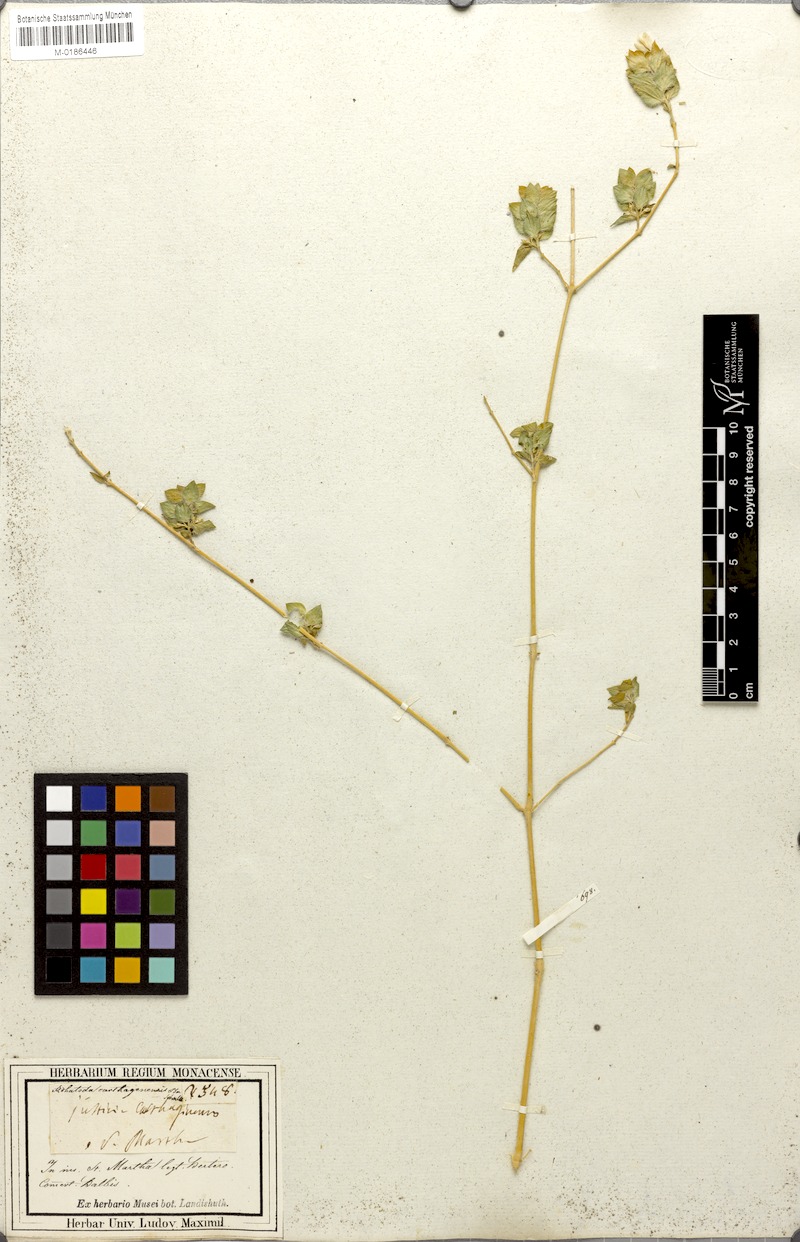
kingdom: Plantae
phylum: Tracheophyta
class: Magnoliopsida
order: Lamiales
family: Acanthaceae
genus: Justicia
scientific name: Justicia carthaginensis
